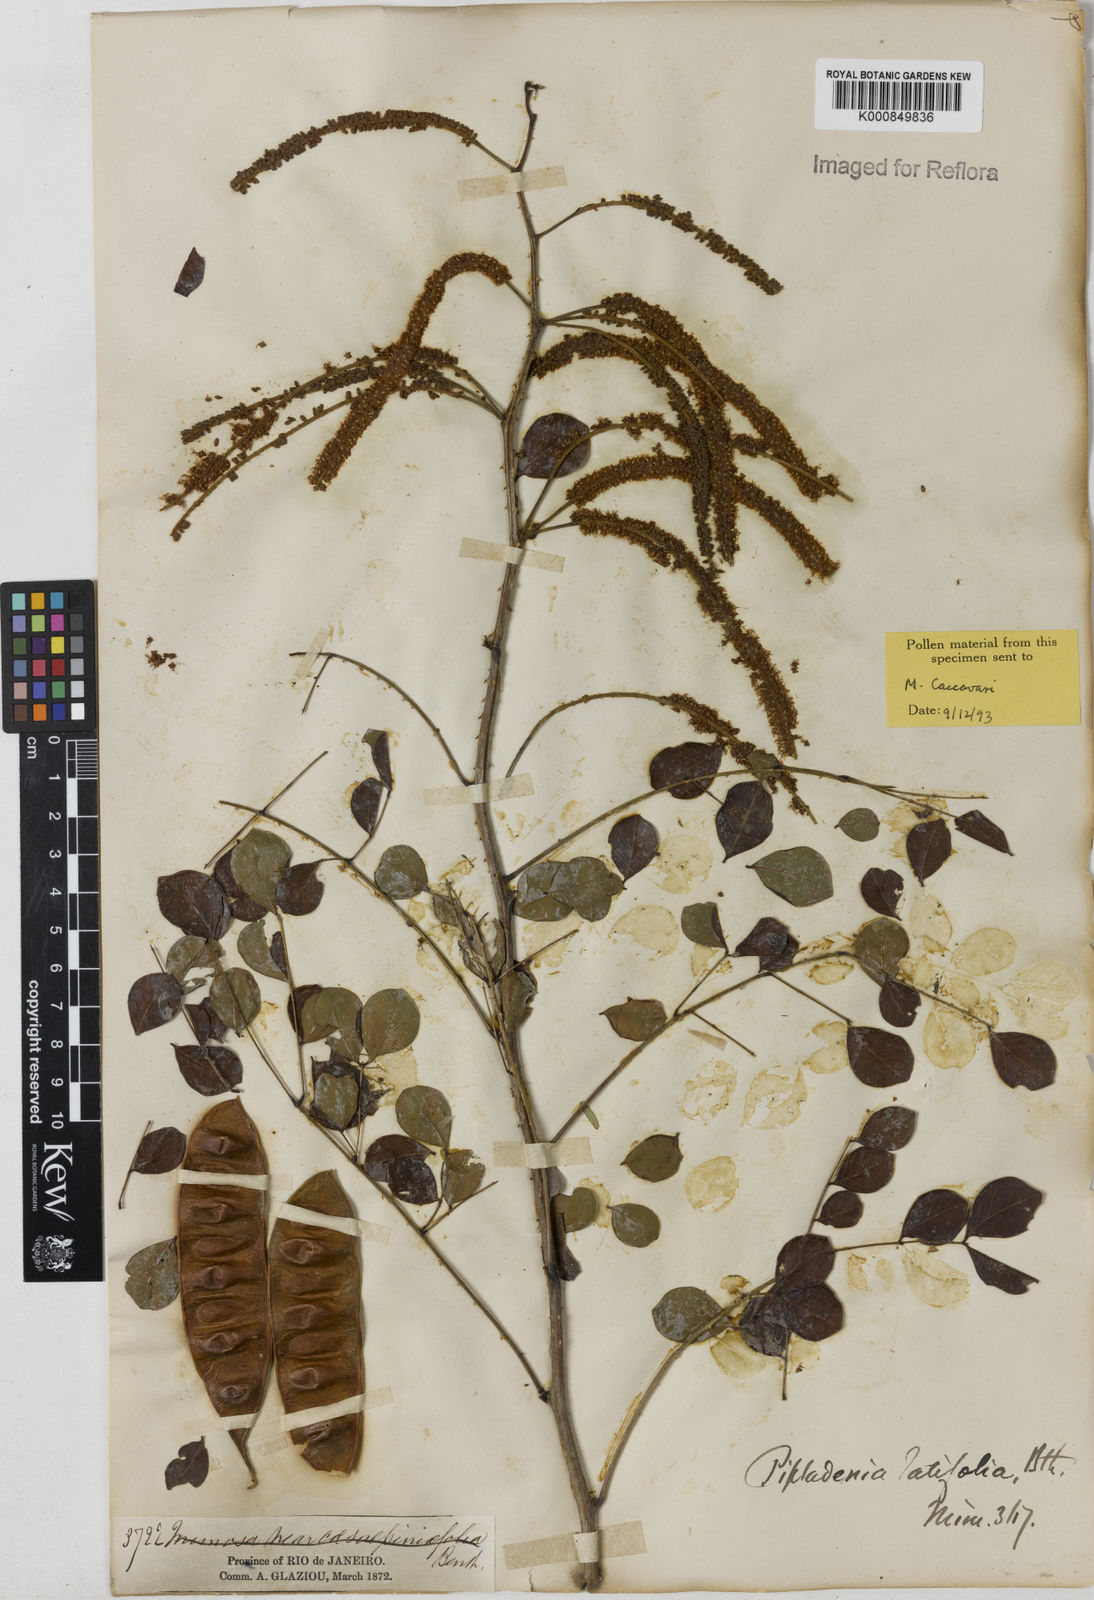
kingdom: Plantae
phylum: Tracheophyta
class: Magnoliopsida
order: Fabales
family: Fabaceae
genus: Piptadenia
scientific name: Piptadenia adiantoides
